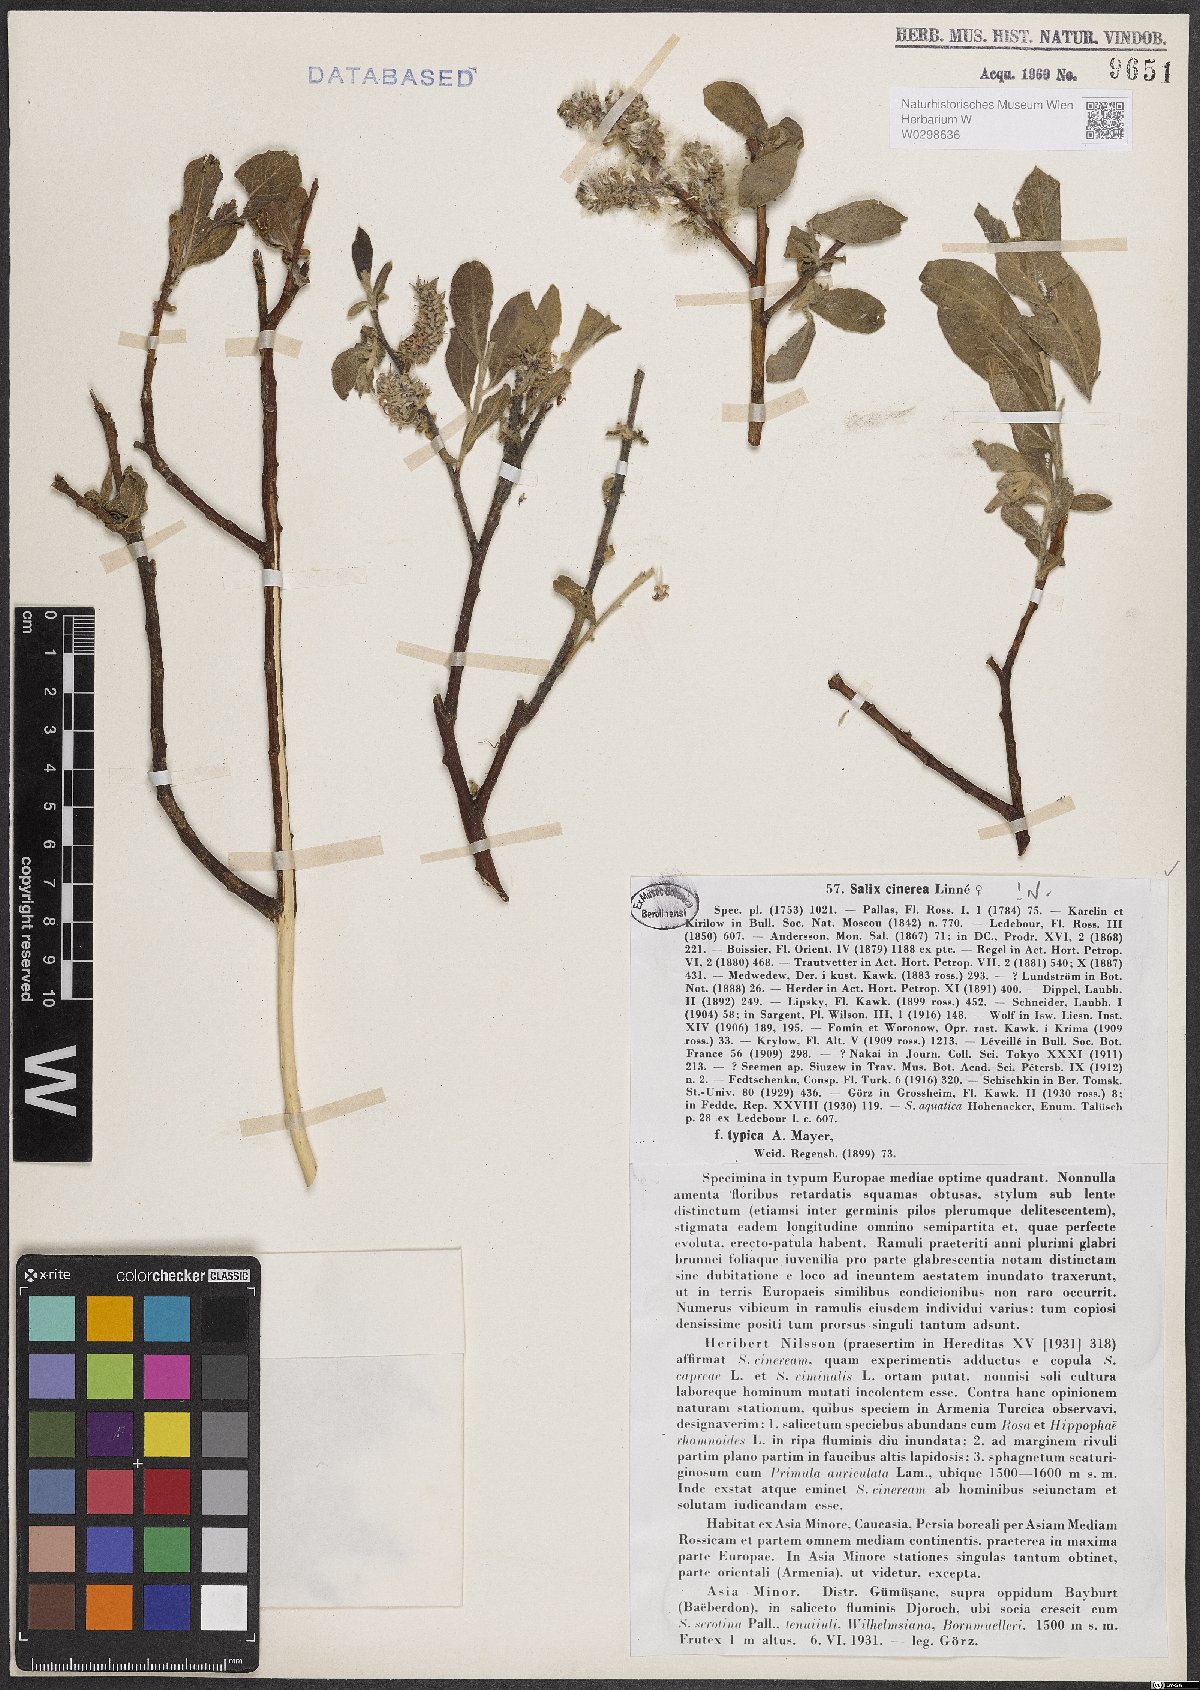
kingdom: Plantae
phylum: Tracheophyta
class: Magnoliopsida
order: Malpighiales
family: Salicaceae
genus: Salix
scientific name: Salix cinerea
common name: Common sallow
